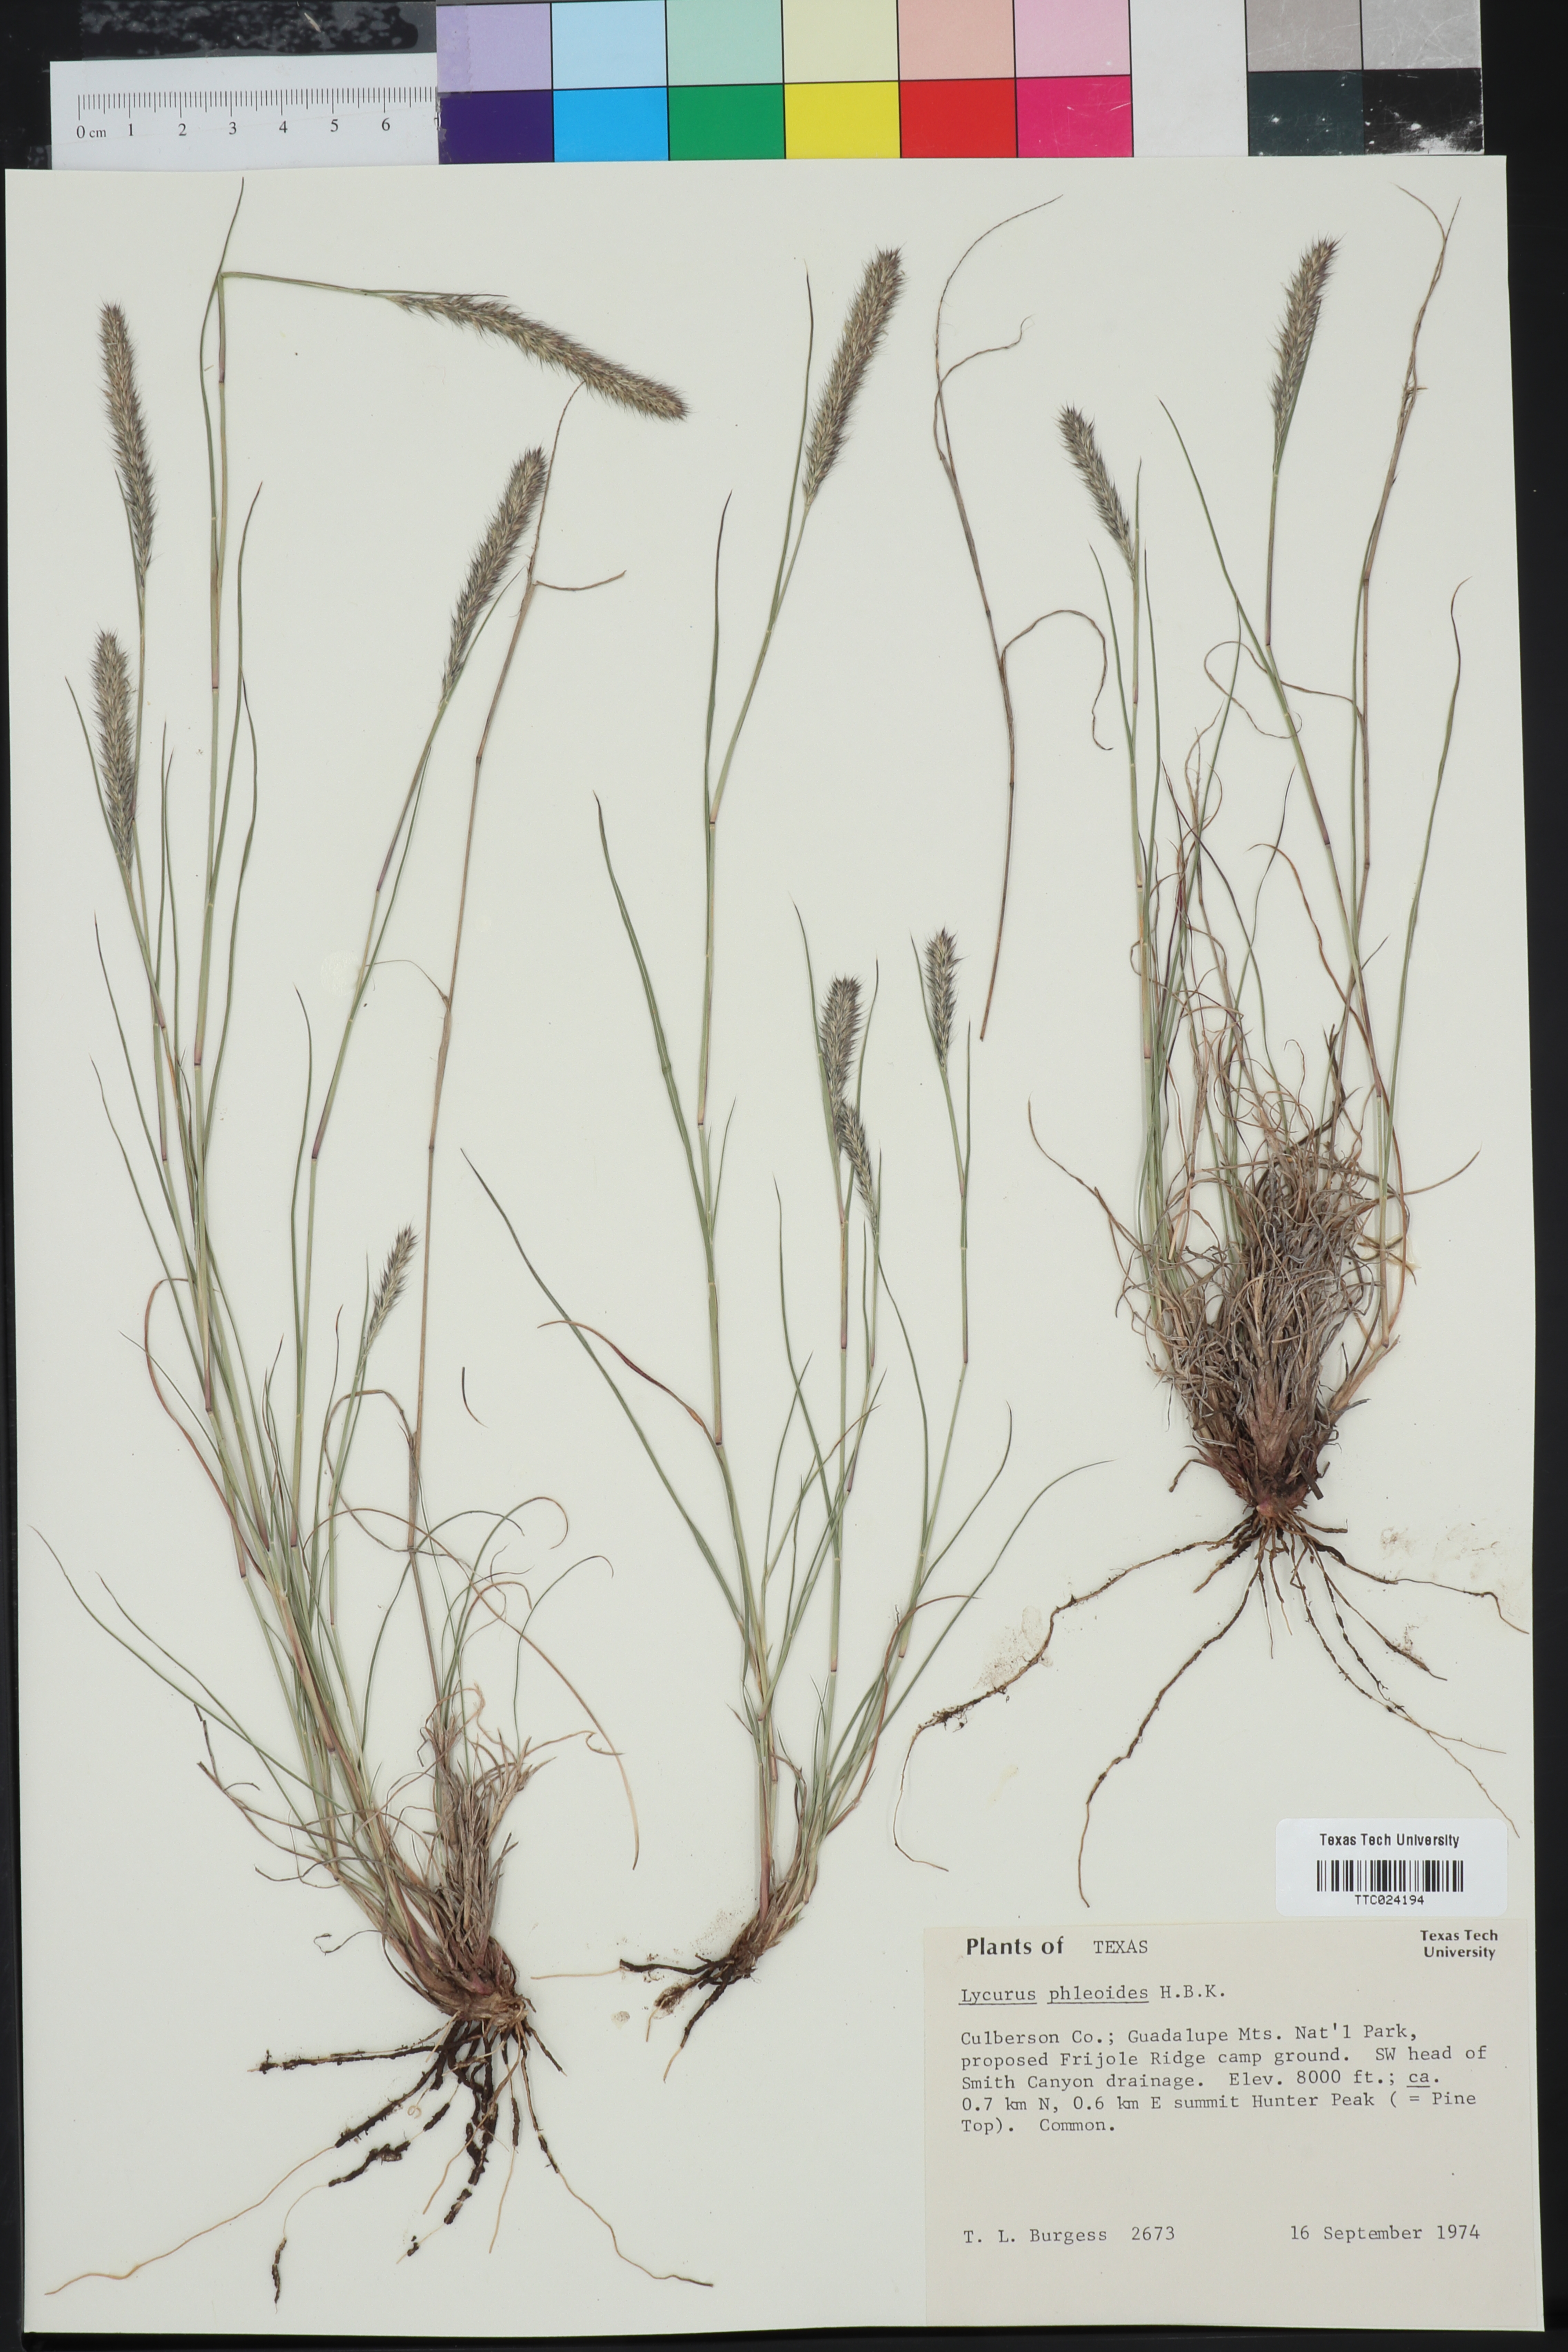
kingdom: Plantae
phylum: Tracheophyta
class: Liliopsida
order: Poales
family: Poaceae
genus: Muhlenbergia
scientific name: Muhlenbergia phleoides
